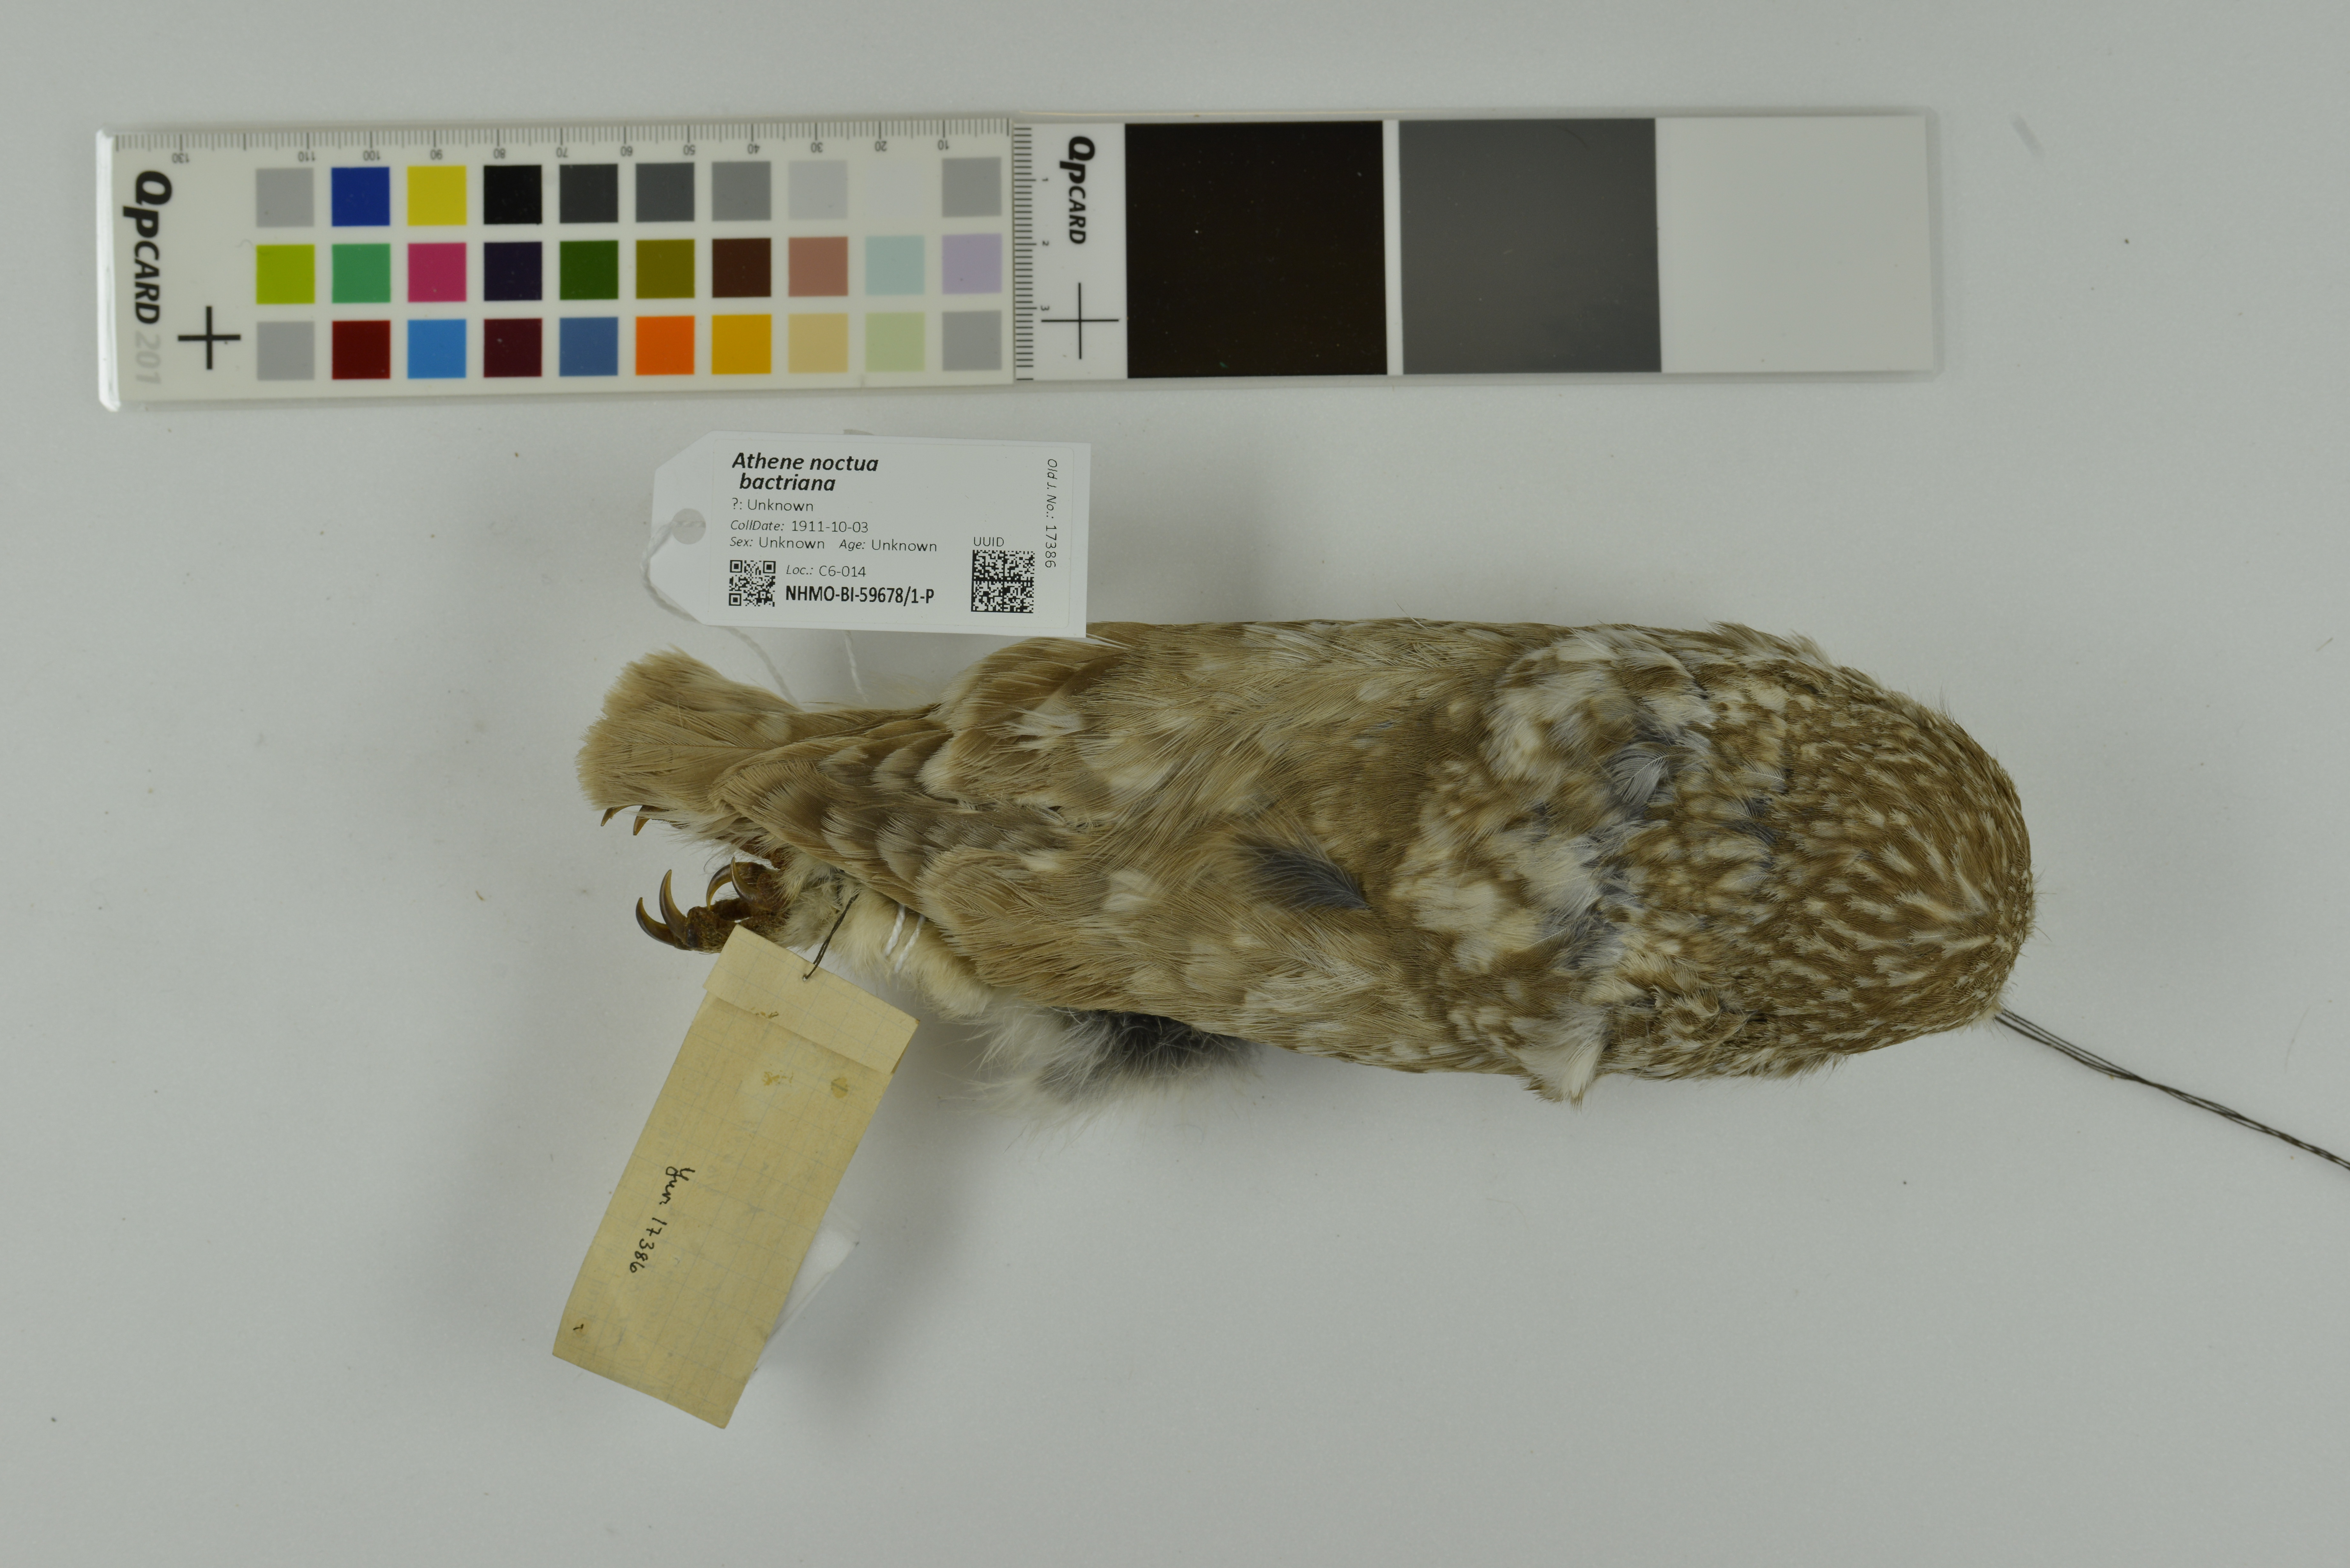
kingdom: Animalia
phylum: Chordata
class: Aves
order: Strigiformes
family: Strigidae
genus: Athene
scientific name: Athene noctua
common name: Little owl
